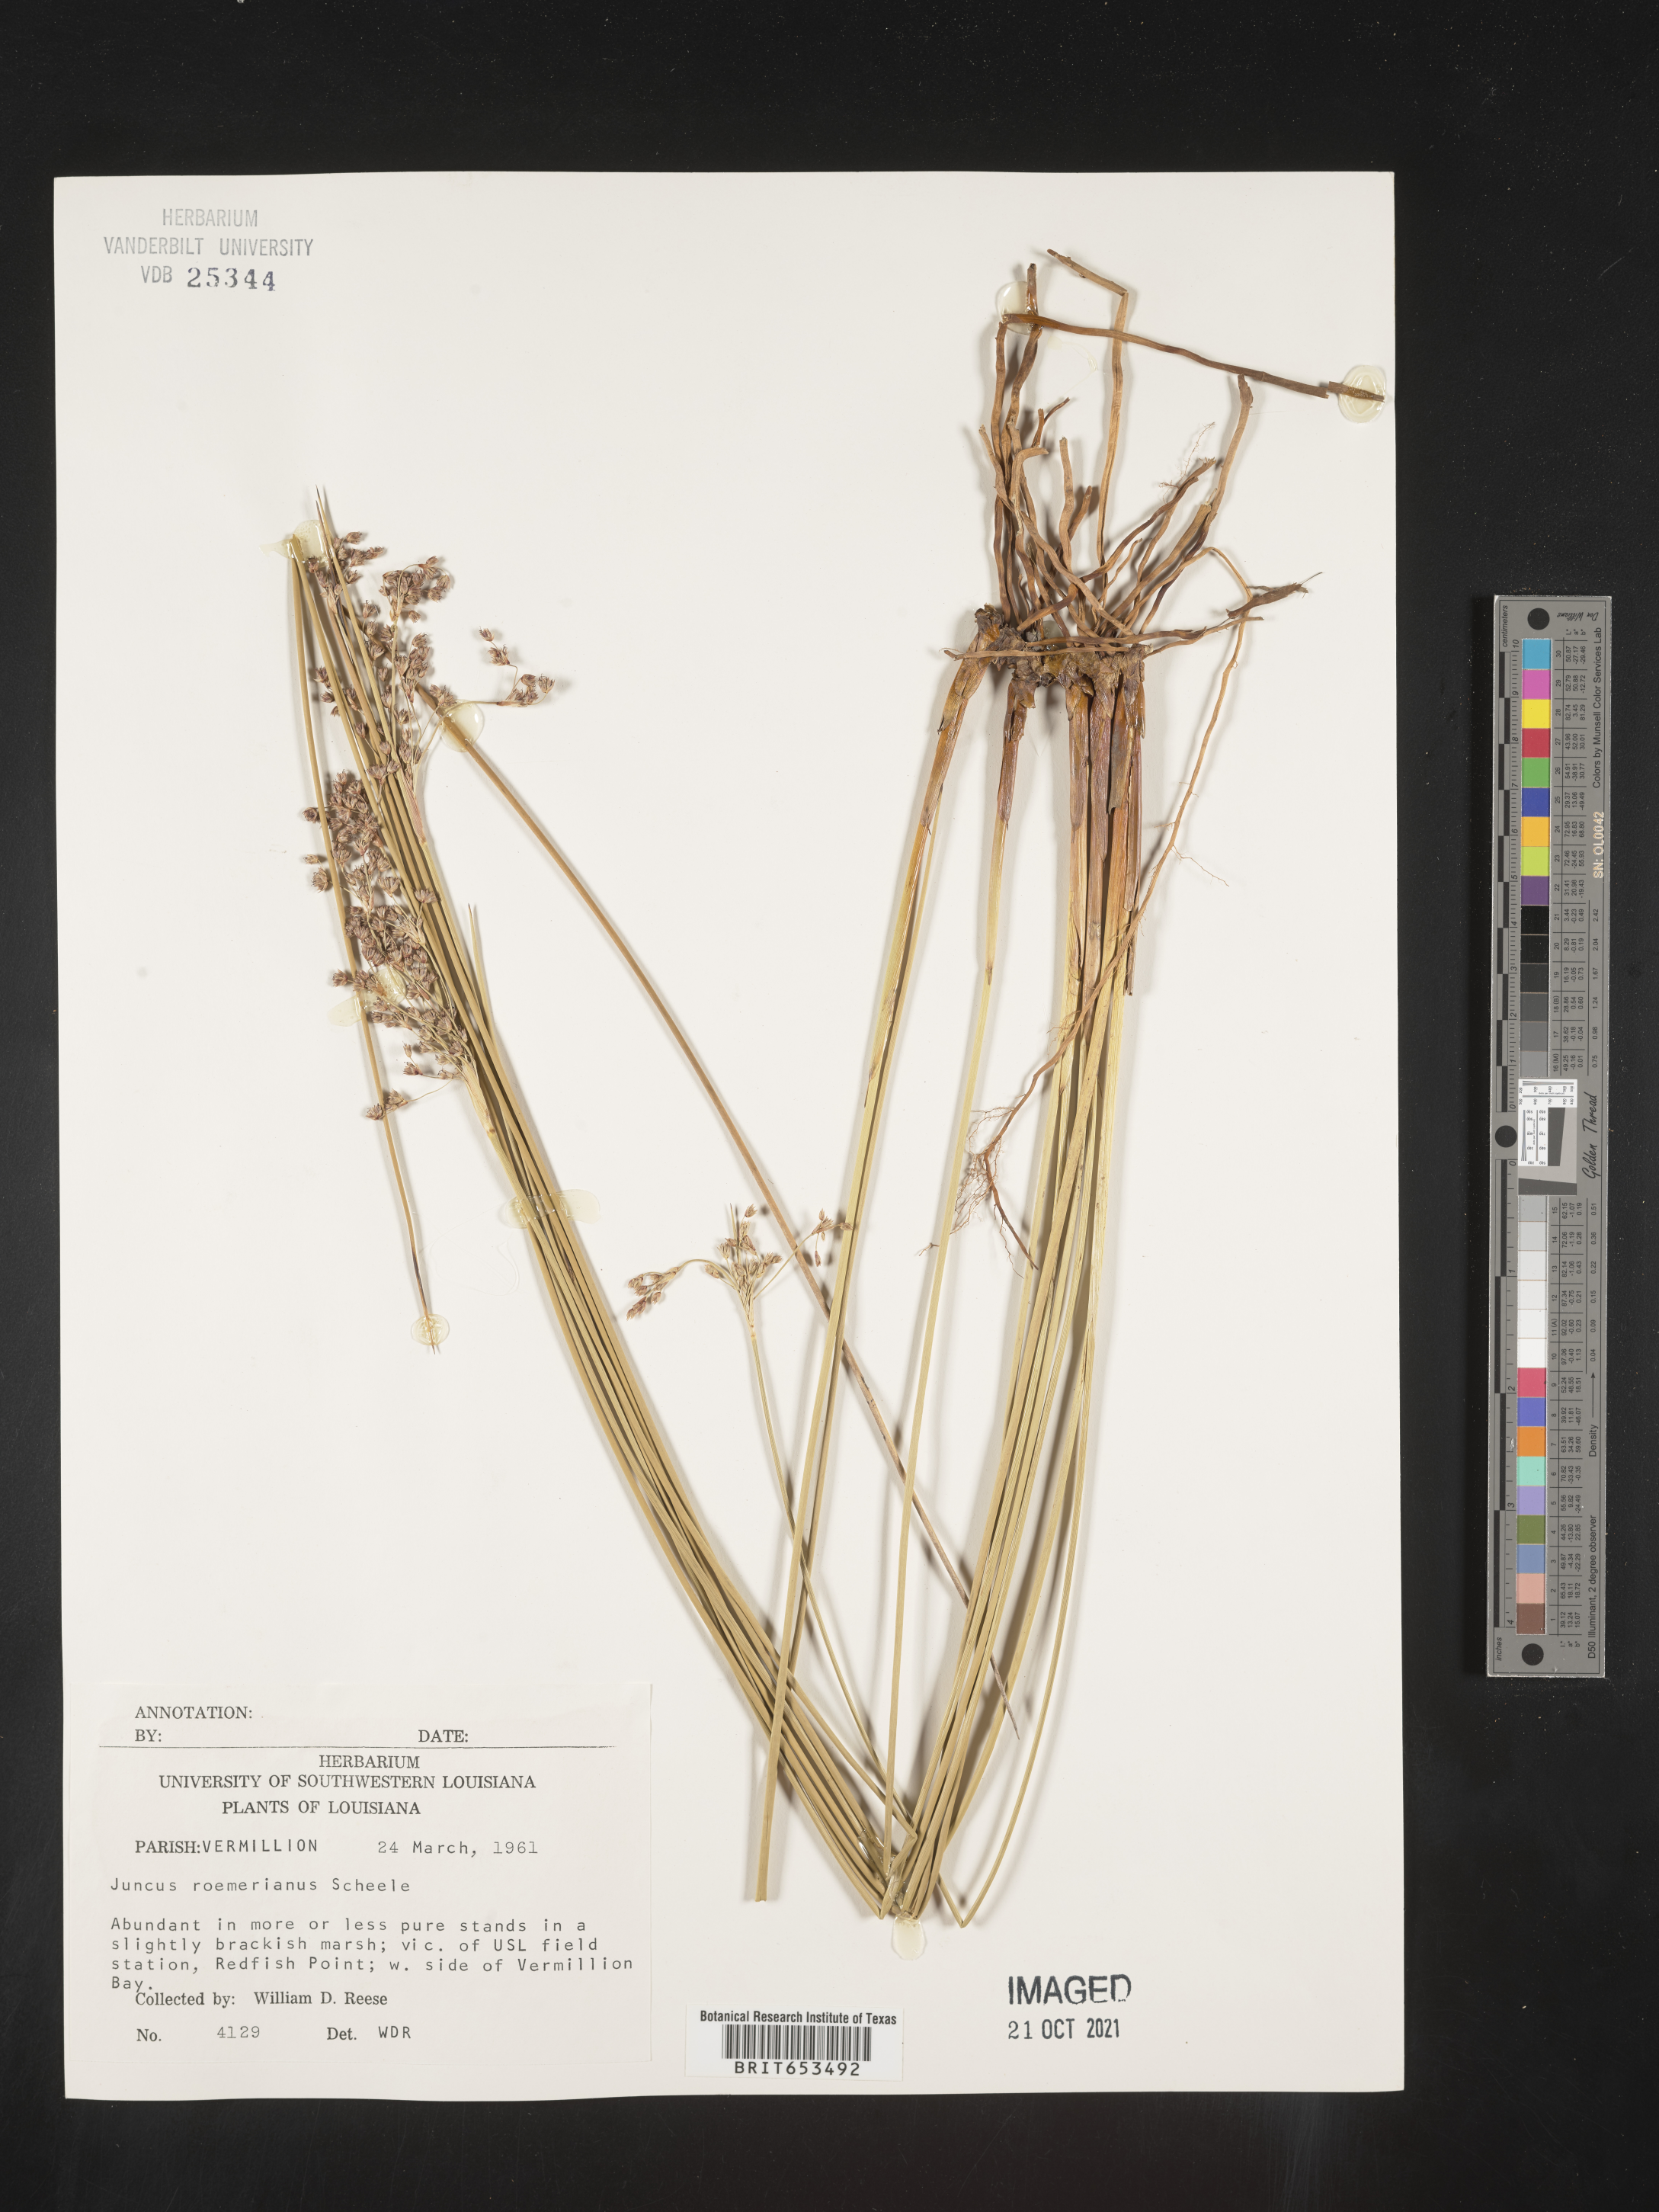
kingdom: Plantae
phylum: Tracheophyta
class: Liliopsida
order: Poales
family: Juncaceae
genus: Juncus
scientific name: Juncus roemerianus
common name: Roemer's rush
